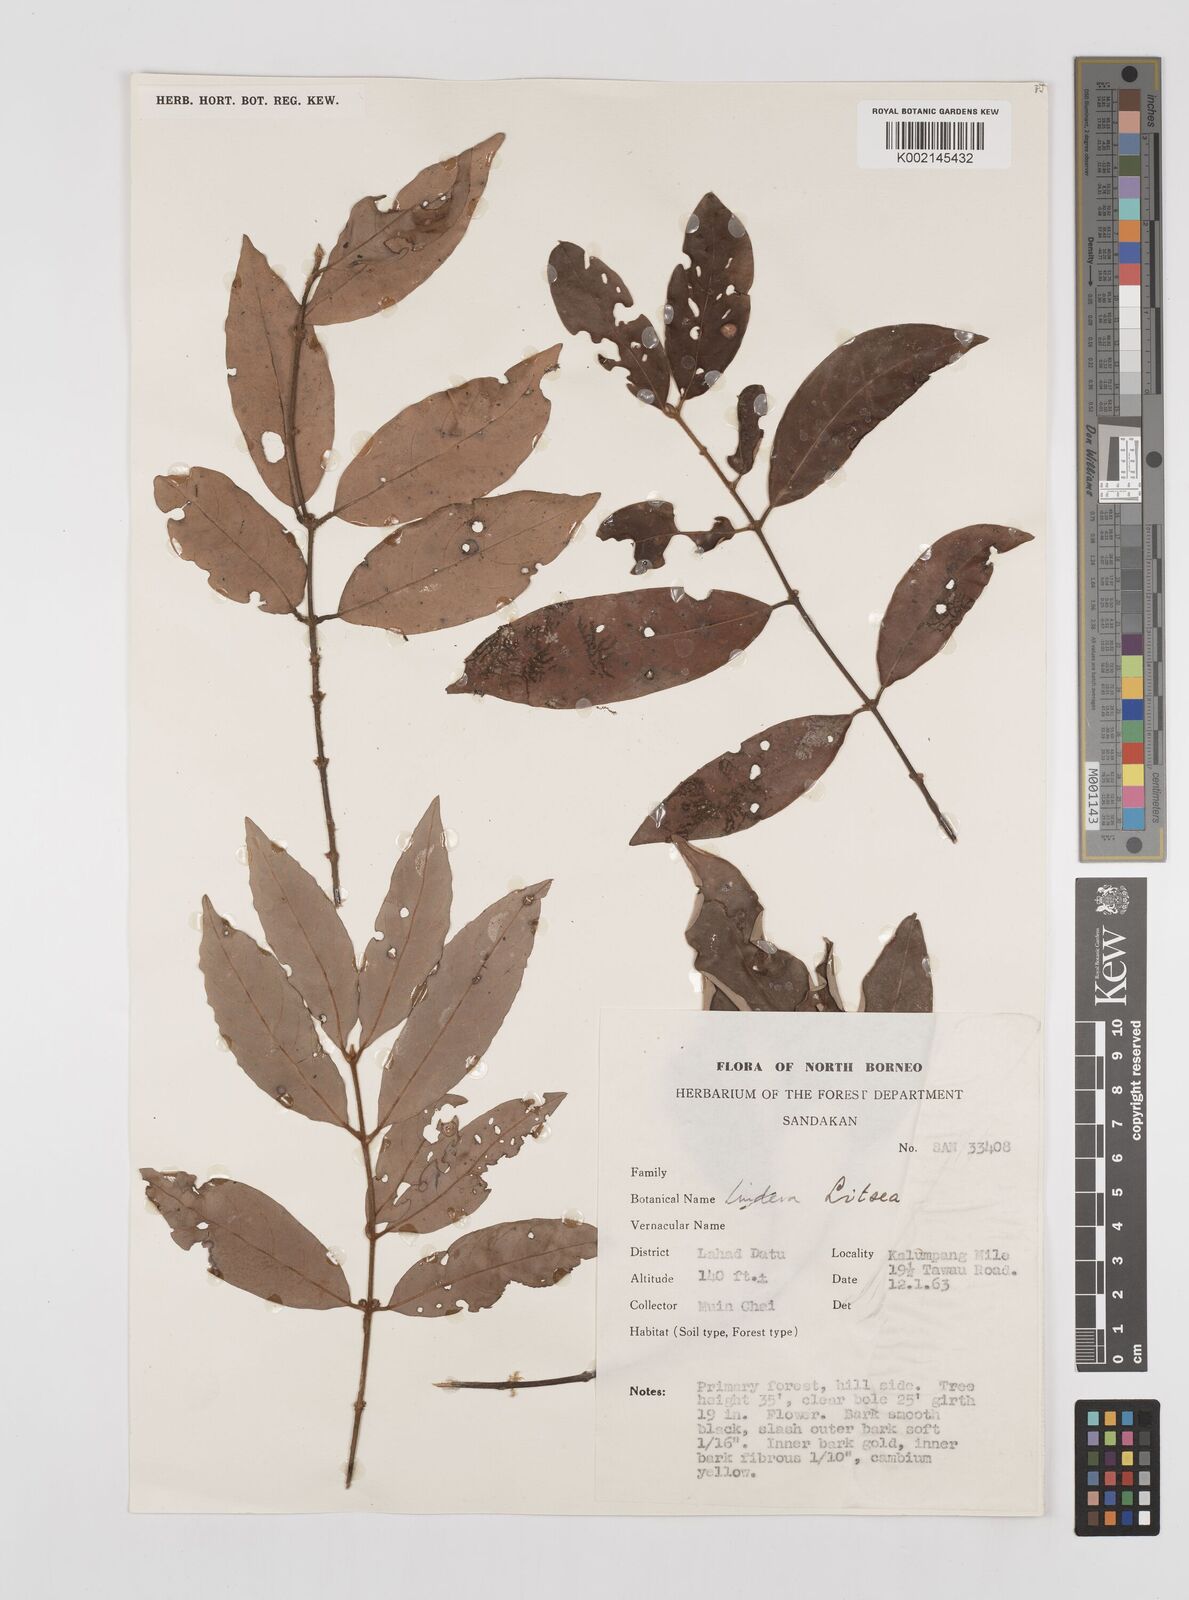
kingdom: Plantae
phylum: Tracheophyta
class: Magnoliopsida
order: Laurales
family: Lauraceae
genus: Litsea
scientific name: Litsea
